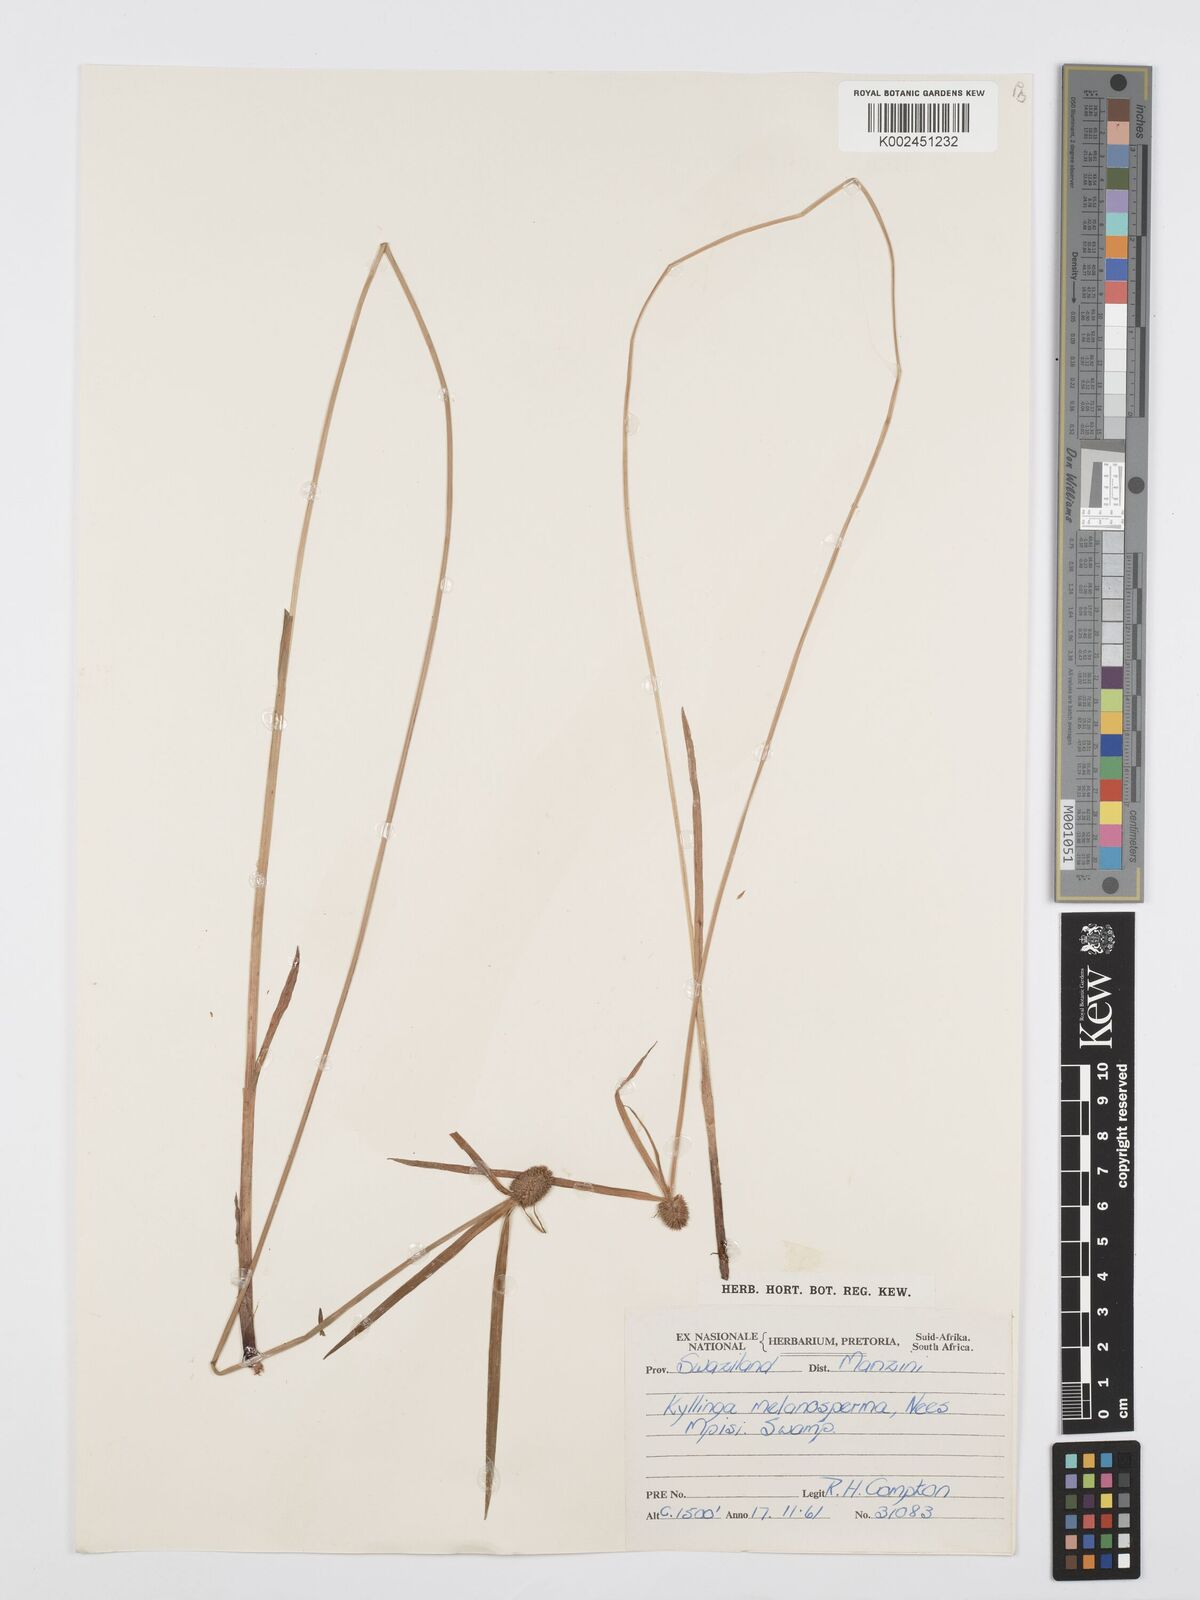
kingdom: Plantae
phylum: Tracheophyta
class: Liliopsida
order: Poales
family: Cyperaceae
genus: Cyperus
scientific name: Cyperus melanospermus
